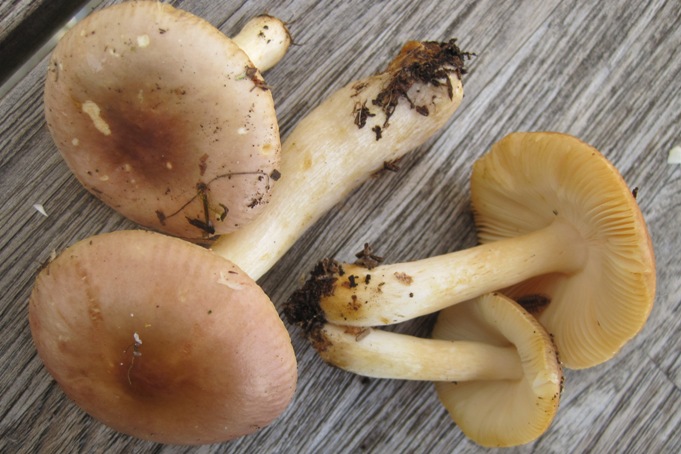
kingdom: Fungi
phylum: Basidiomycota
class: Agaricomycetes
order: Russulales
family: Russulaceae
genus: Russula
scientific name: Russula puellaris
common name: gulstokket skørhat
